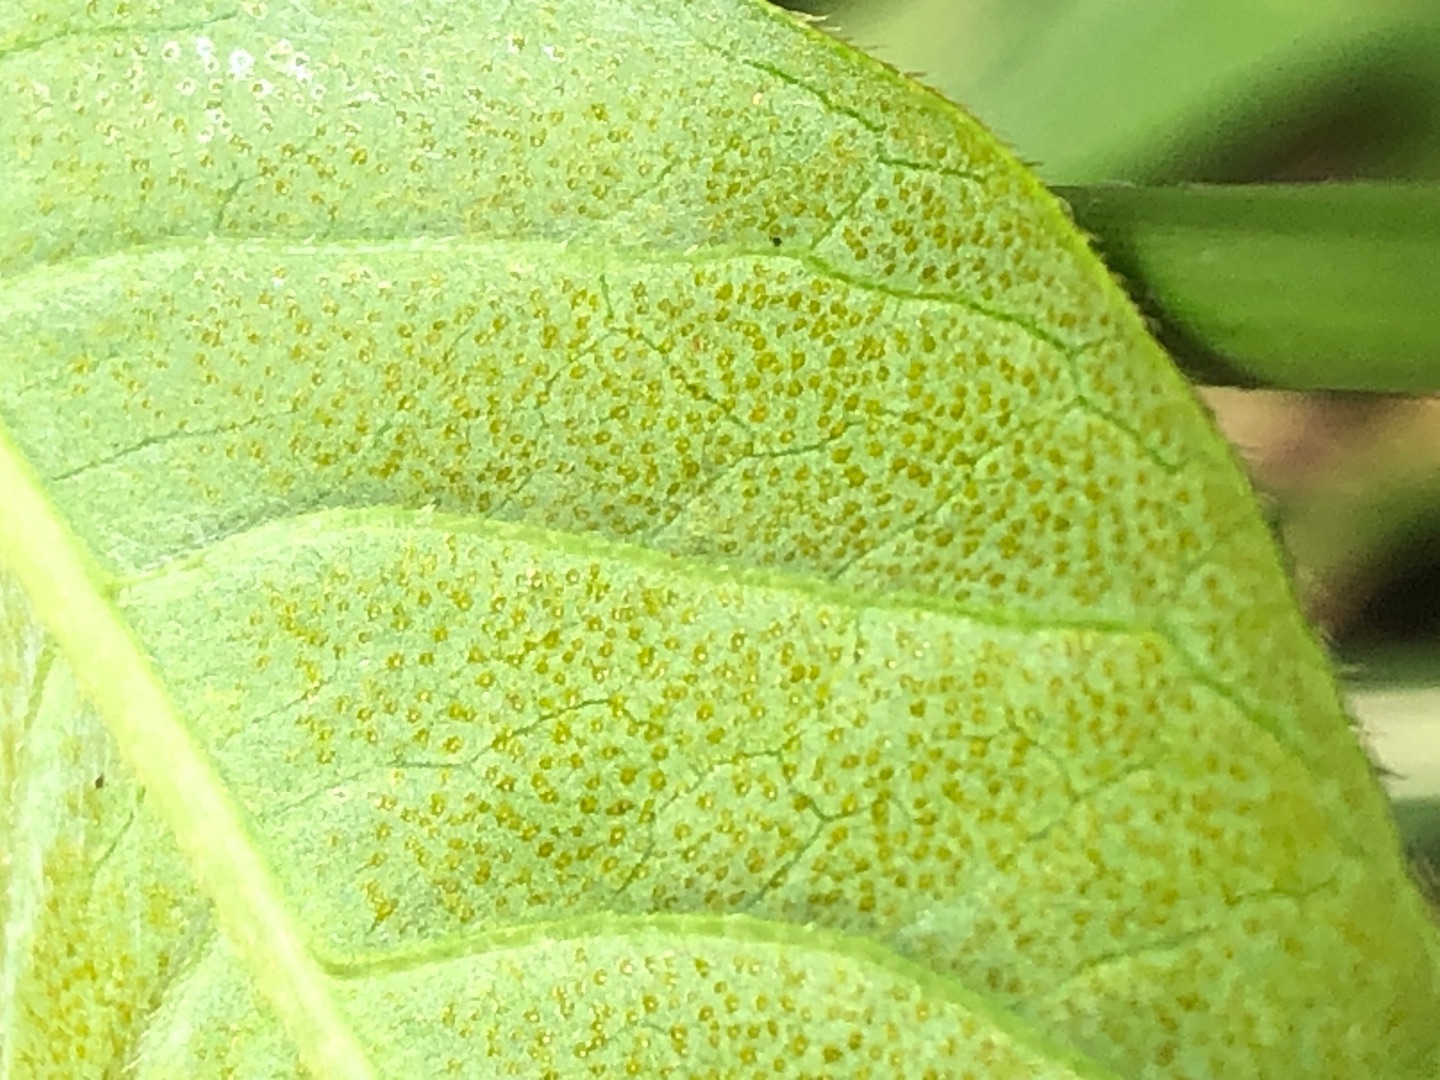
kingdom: Plantae
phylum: Tracheophyta
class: Magnoliopsida
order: Caryophyllales
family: Polygonaceae
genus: Persicaria
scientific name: Persicaria lapathifolia
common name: Bleg pileurt
